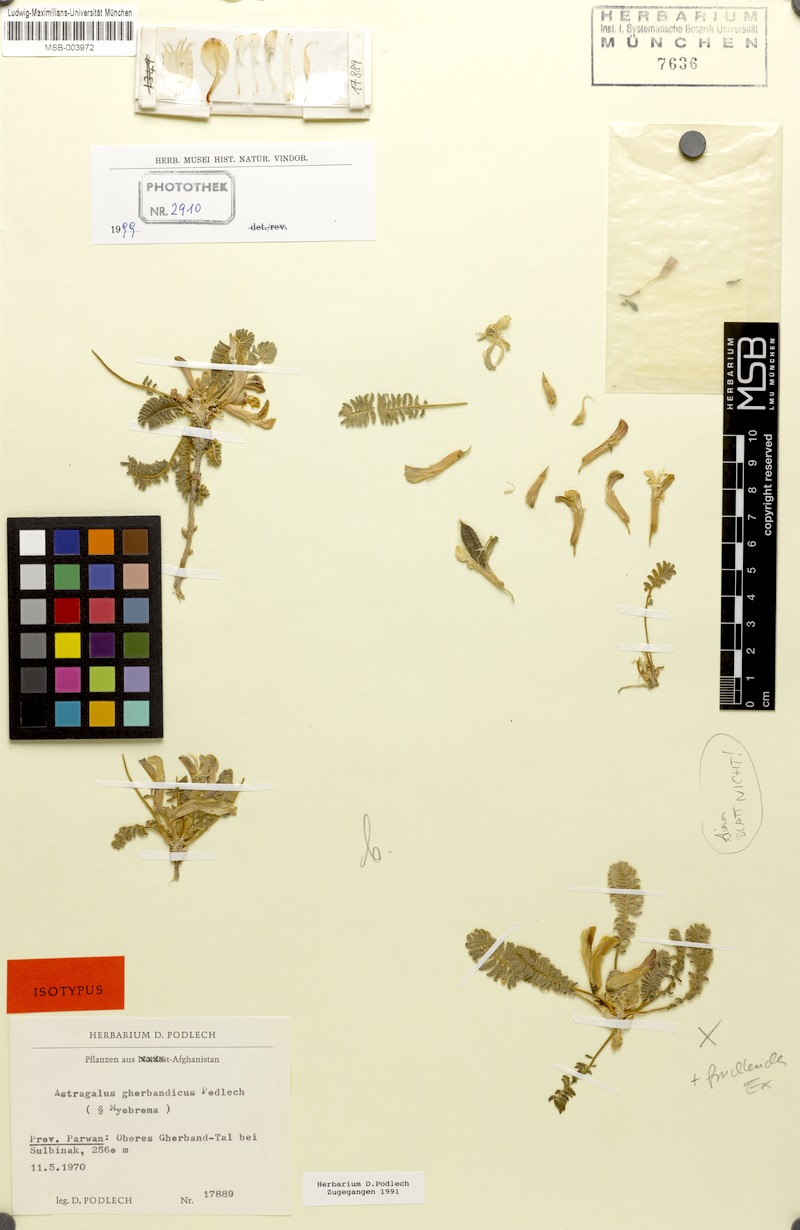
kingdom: Plantae
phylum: Tracheophyta
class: Magnoliopsida
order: Fabales
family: Fabaceae
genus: Astragalus
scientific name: Astragalus ghorbandicus
